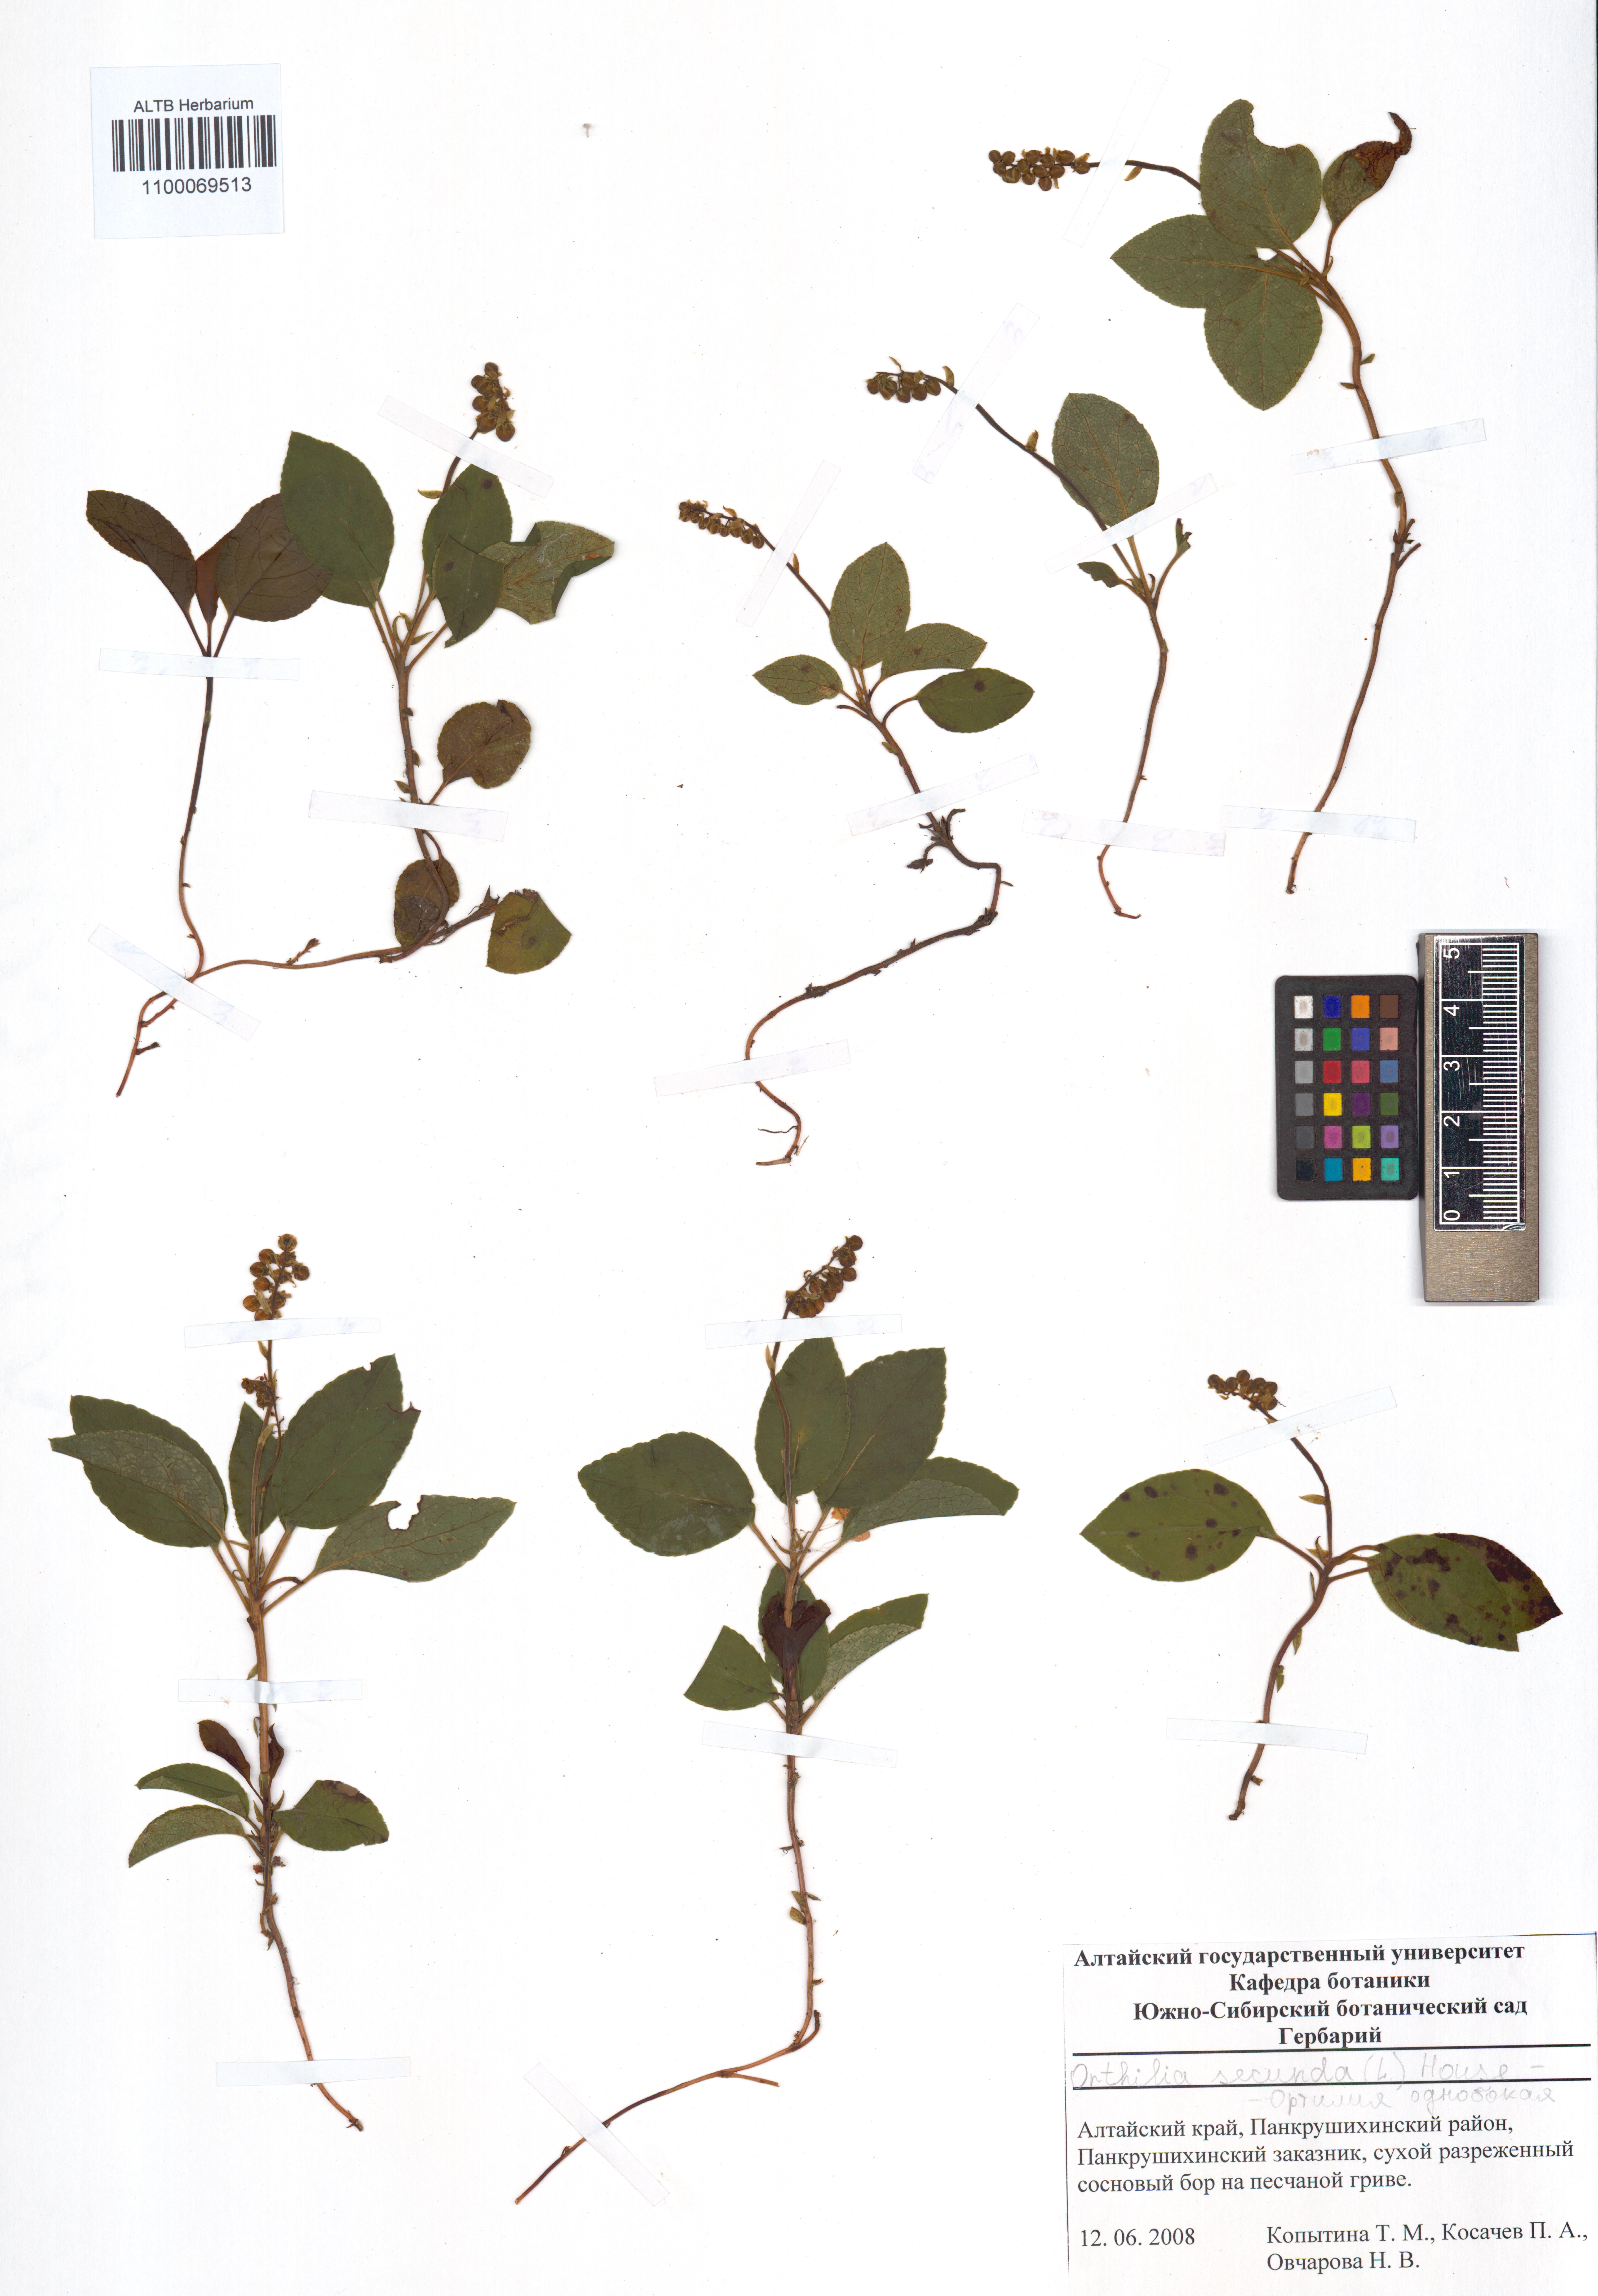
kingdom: Plantae
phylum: Tracheophyta
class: Magnoliopsida
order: Ericales
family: Ericaceae
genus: Orthilia
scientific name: Orthilia secunda
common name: One-sided orthilia
